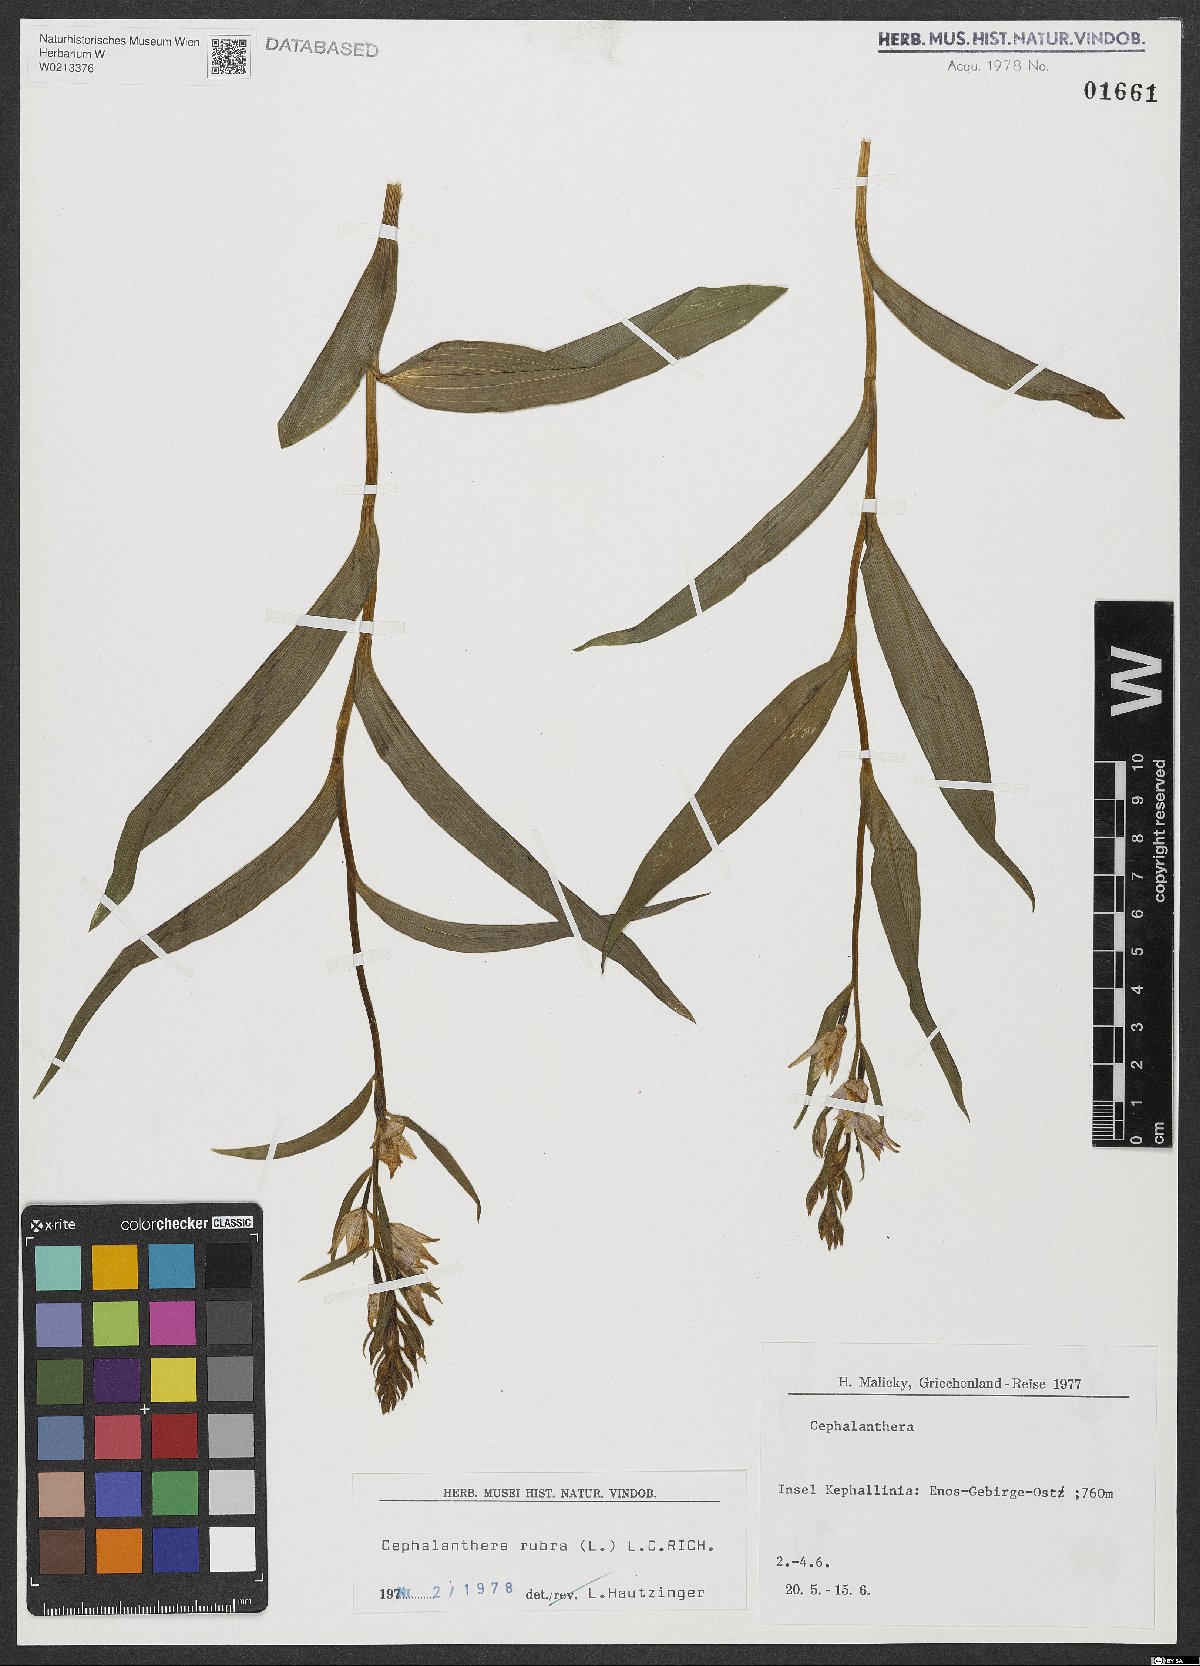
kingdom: Plantae
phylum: Tracheophyta
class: Liliopsida
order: Asparagales
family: Orchidaceae
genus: Cephalanthera
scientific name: Cephalanthera rubra
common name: Red helleborine
